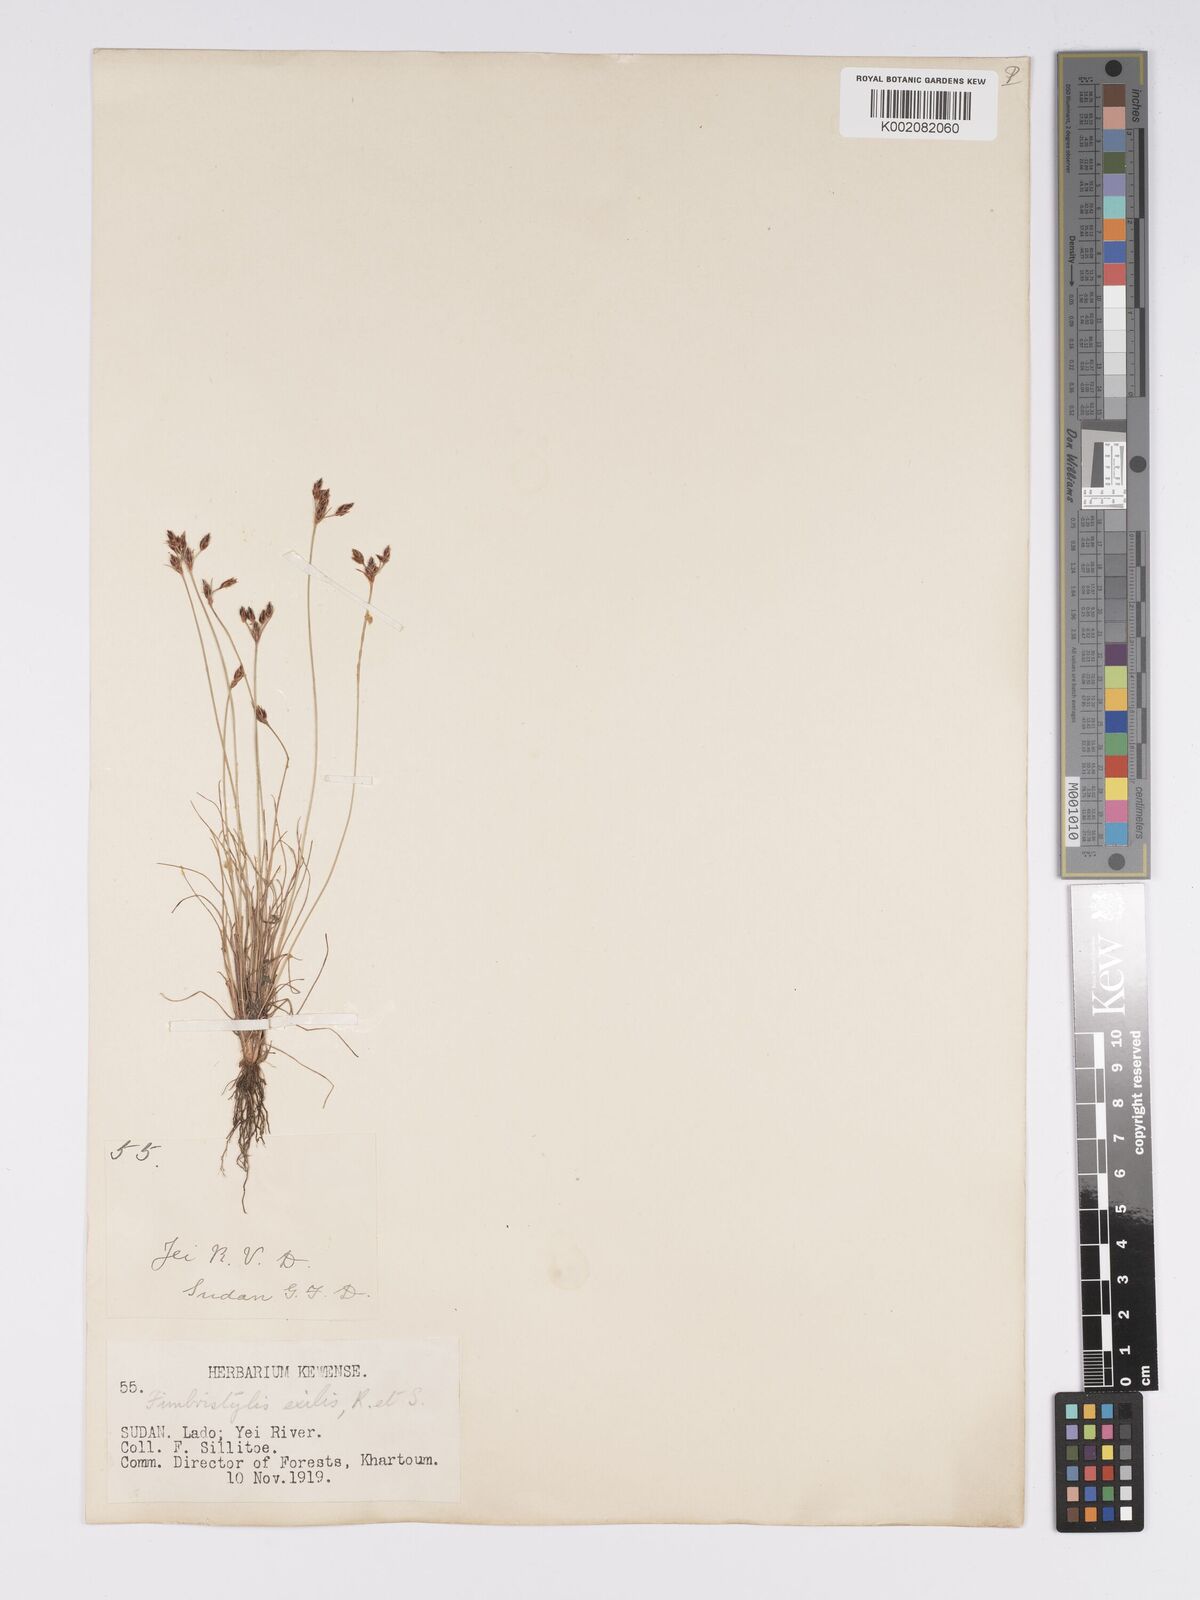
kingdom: Plantae
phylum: Tracheophyta
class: Liliopsida
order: Poales
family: Cyperaceae
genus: Bulbostylis
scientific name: Bulbostylis hispidula
